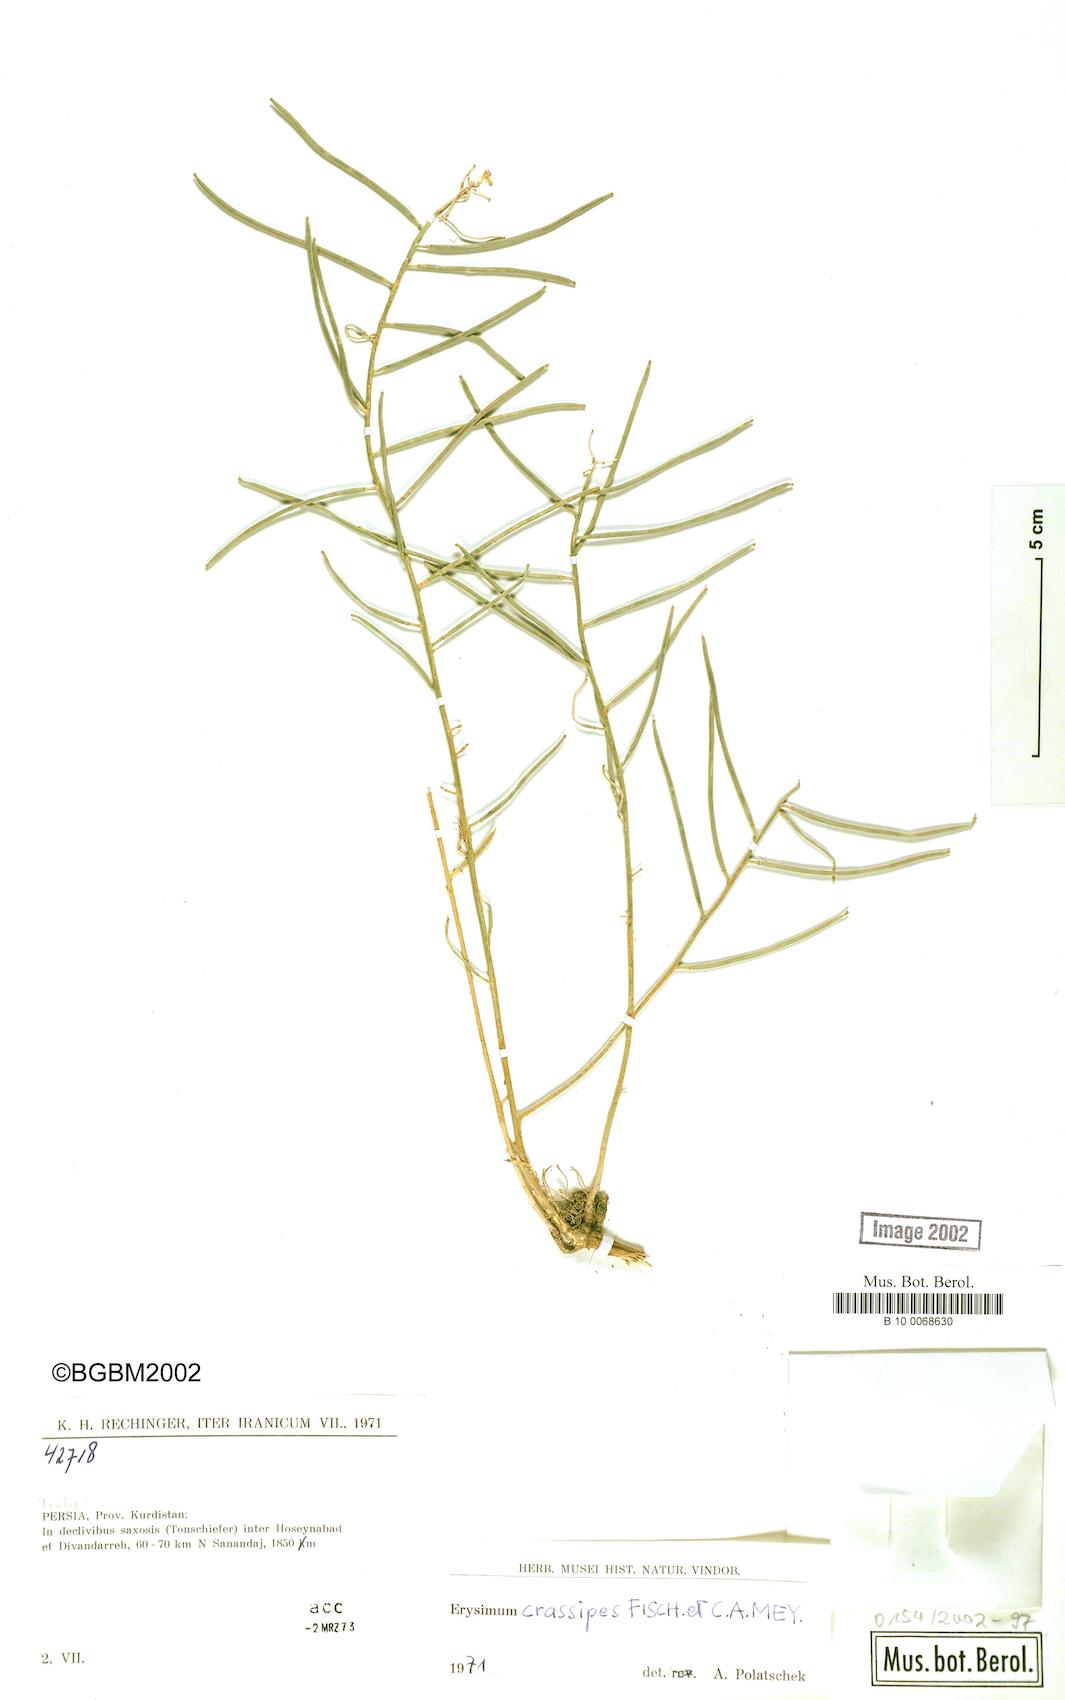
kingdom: Plantae
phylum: Tracheophyta
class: Magnoliopsida
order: Brassicales
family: Brassicaceae
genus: Erysimum
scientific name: Erysimum crassipes
